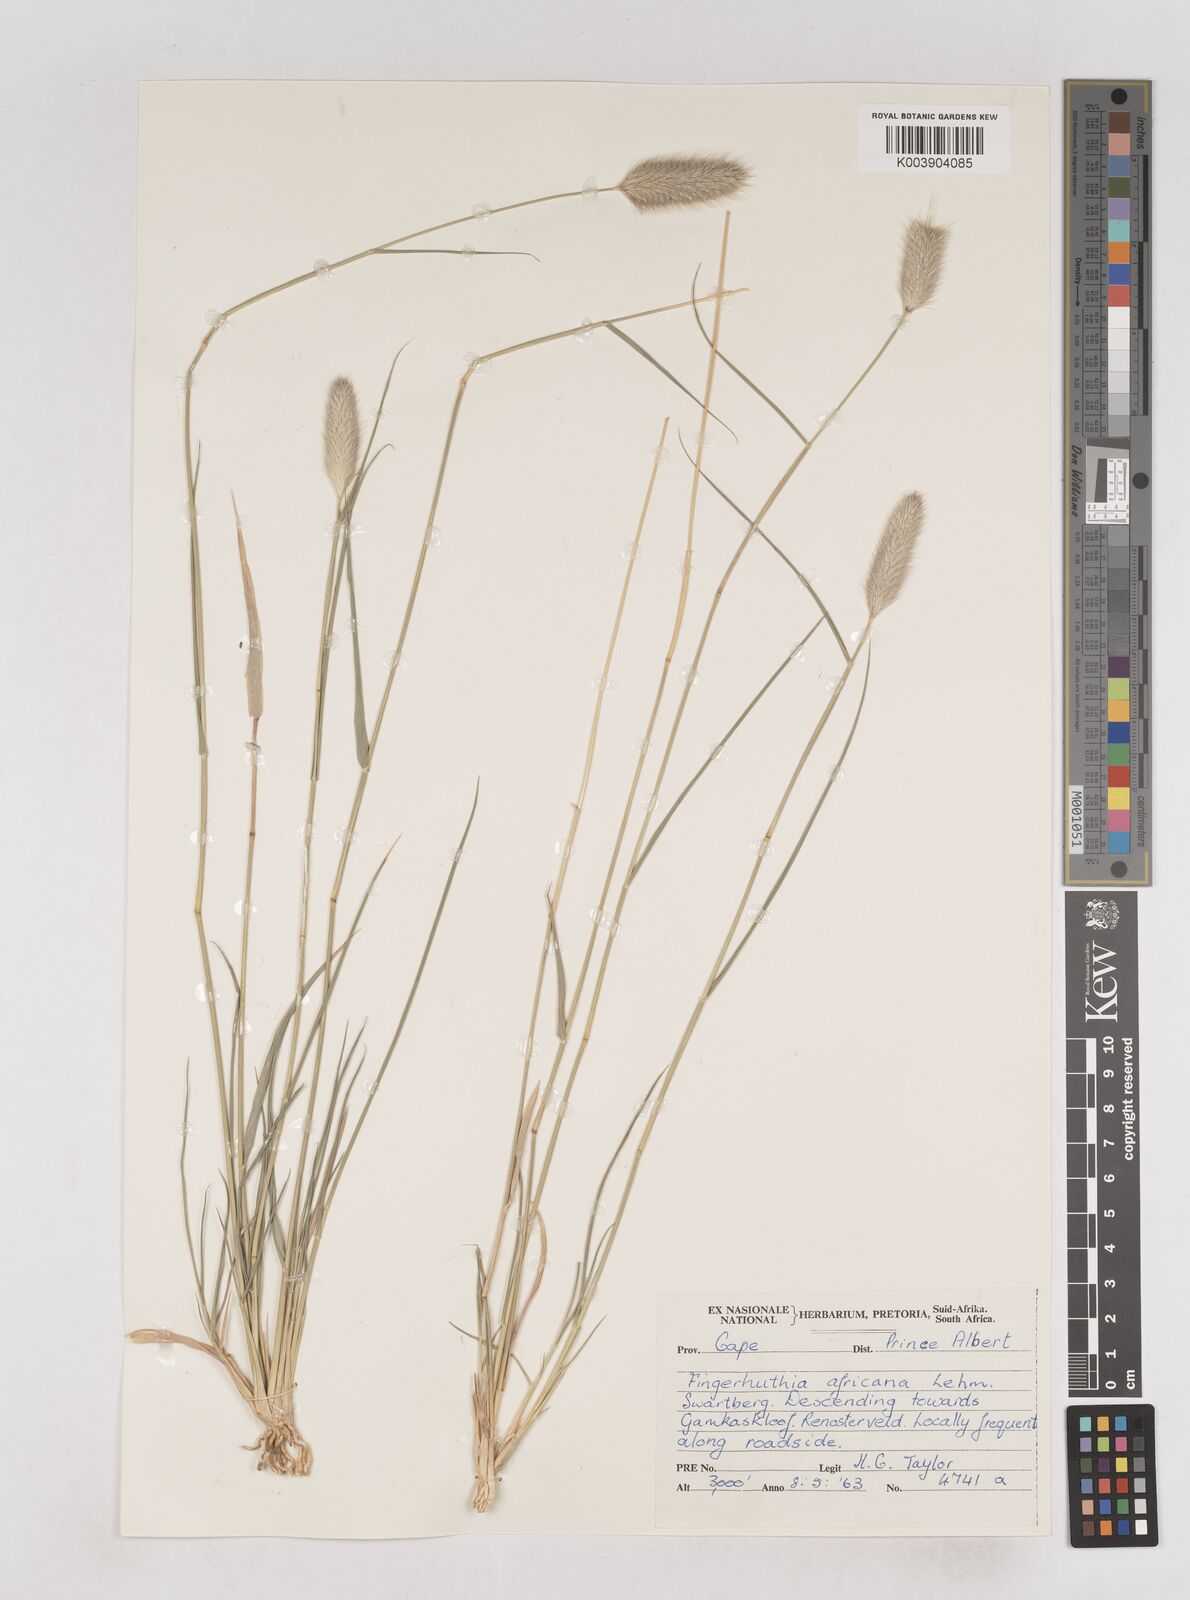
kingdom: Plantae
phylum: Tracheophyta
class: Liliopsida
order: Poales
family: Poaceae
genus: Fingerhuthia
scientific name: Fingerhuthia africana
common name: Zulu fescue
